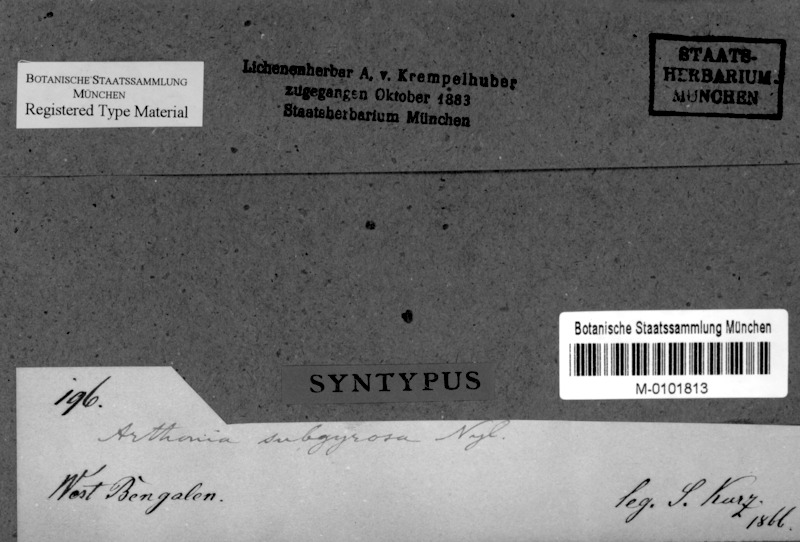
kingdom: Fungi
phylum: Ascomycota
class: Arthoniomycetes
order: Arthoniales
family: Arthoniaceae
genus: Arthonia
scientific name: Arthonia subgyrosa
